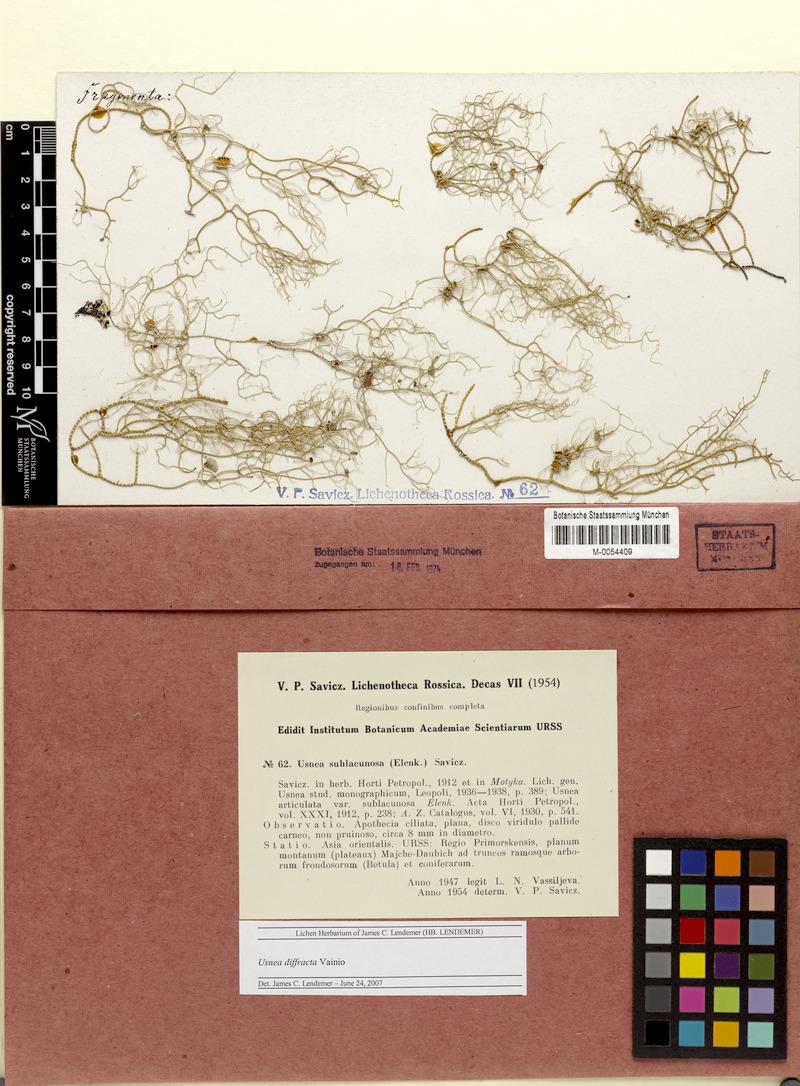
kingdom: Fungi
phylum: Ascomycota
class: Lecanoromycetes
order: Lecanorales
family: Parmeliaceae
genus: Dolichousnea
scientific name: Dolichousnea diffracta
